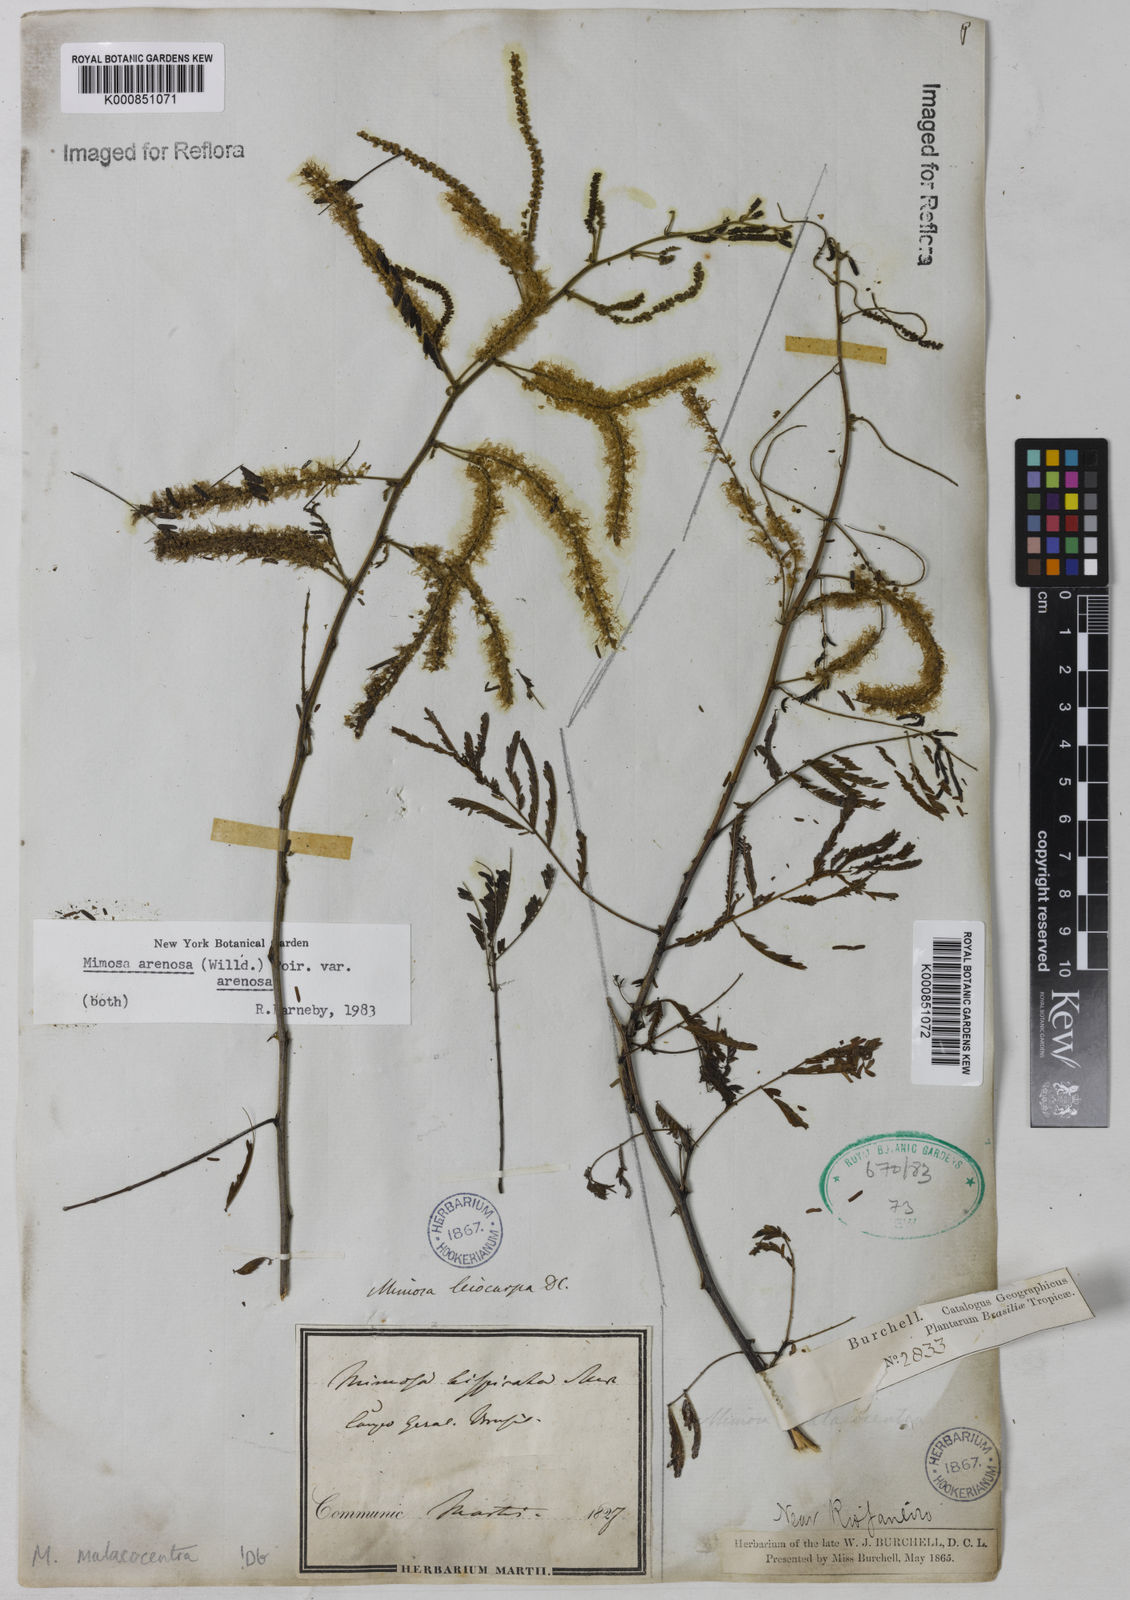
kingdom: Plantae
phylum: Tracheophyta
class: Magnoliopsida
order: Fabales
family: Fabaceae
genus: Mimosa
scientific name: Mimosa arenosa
